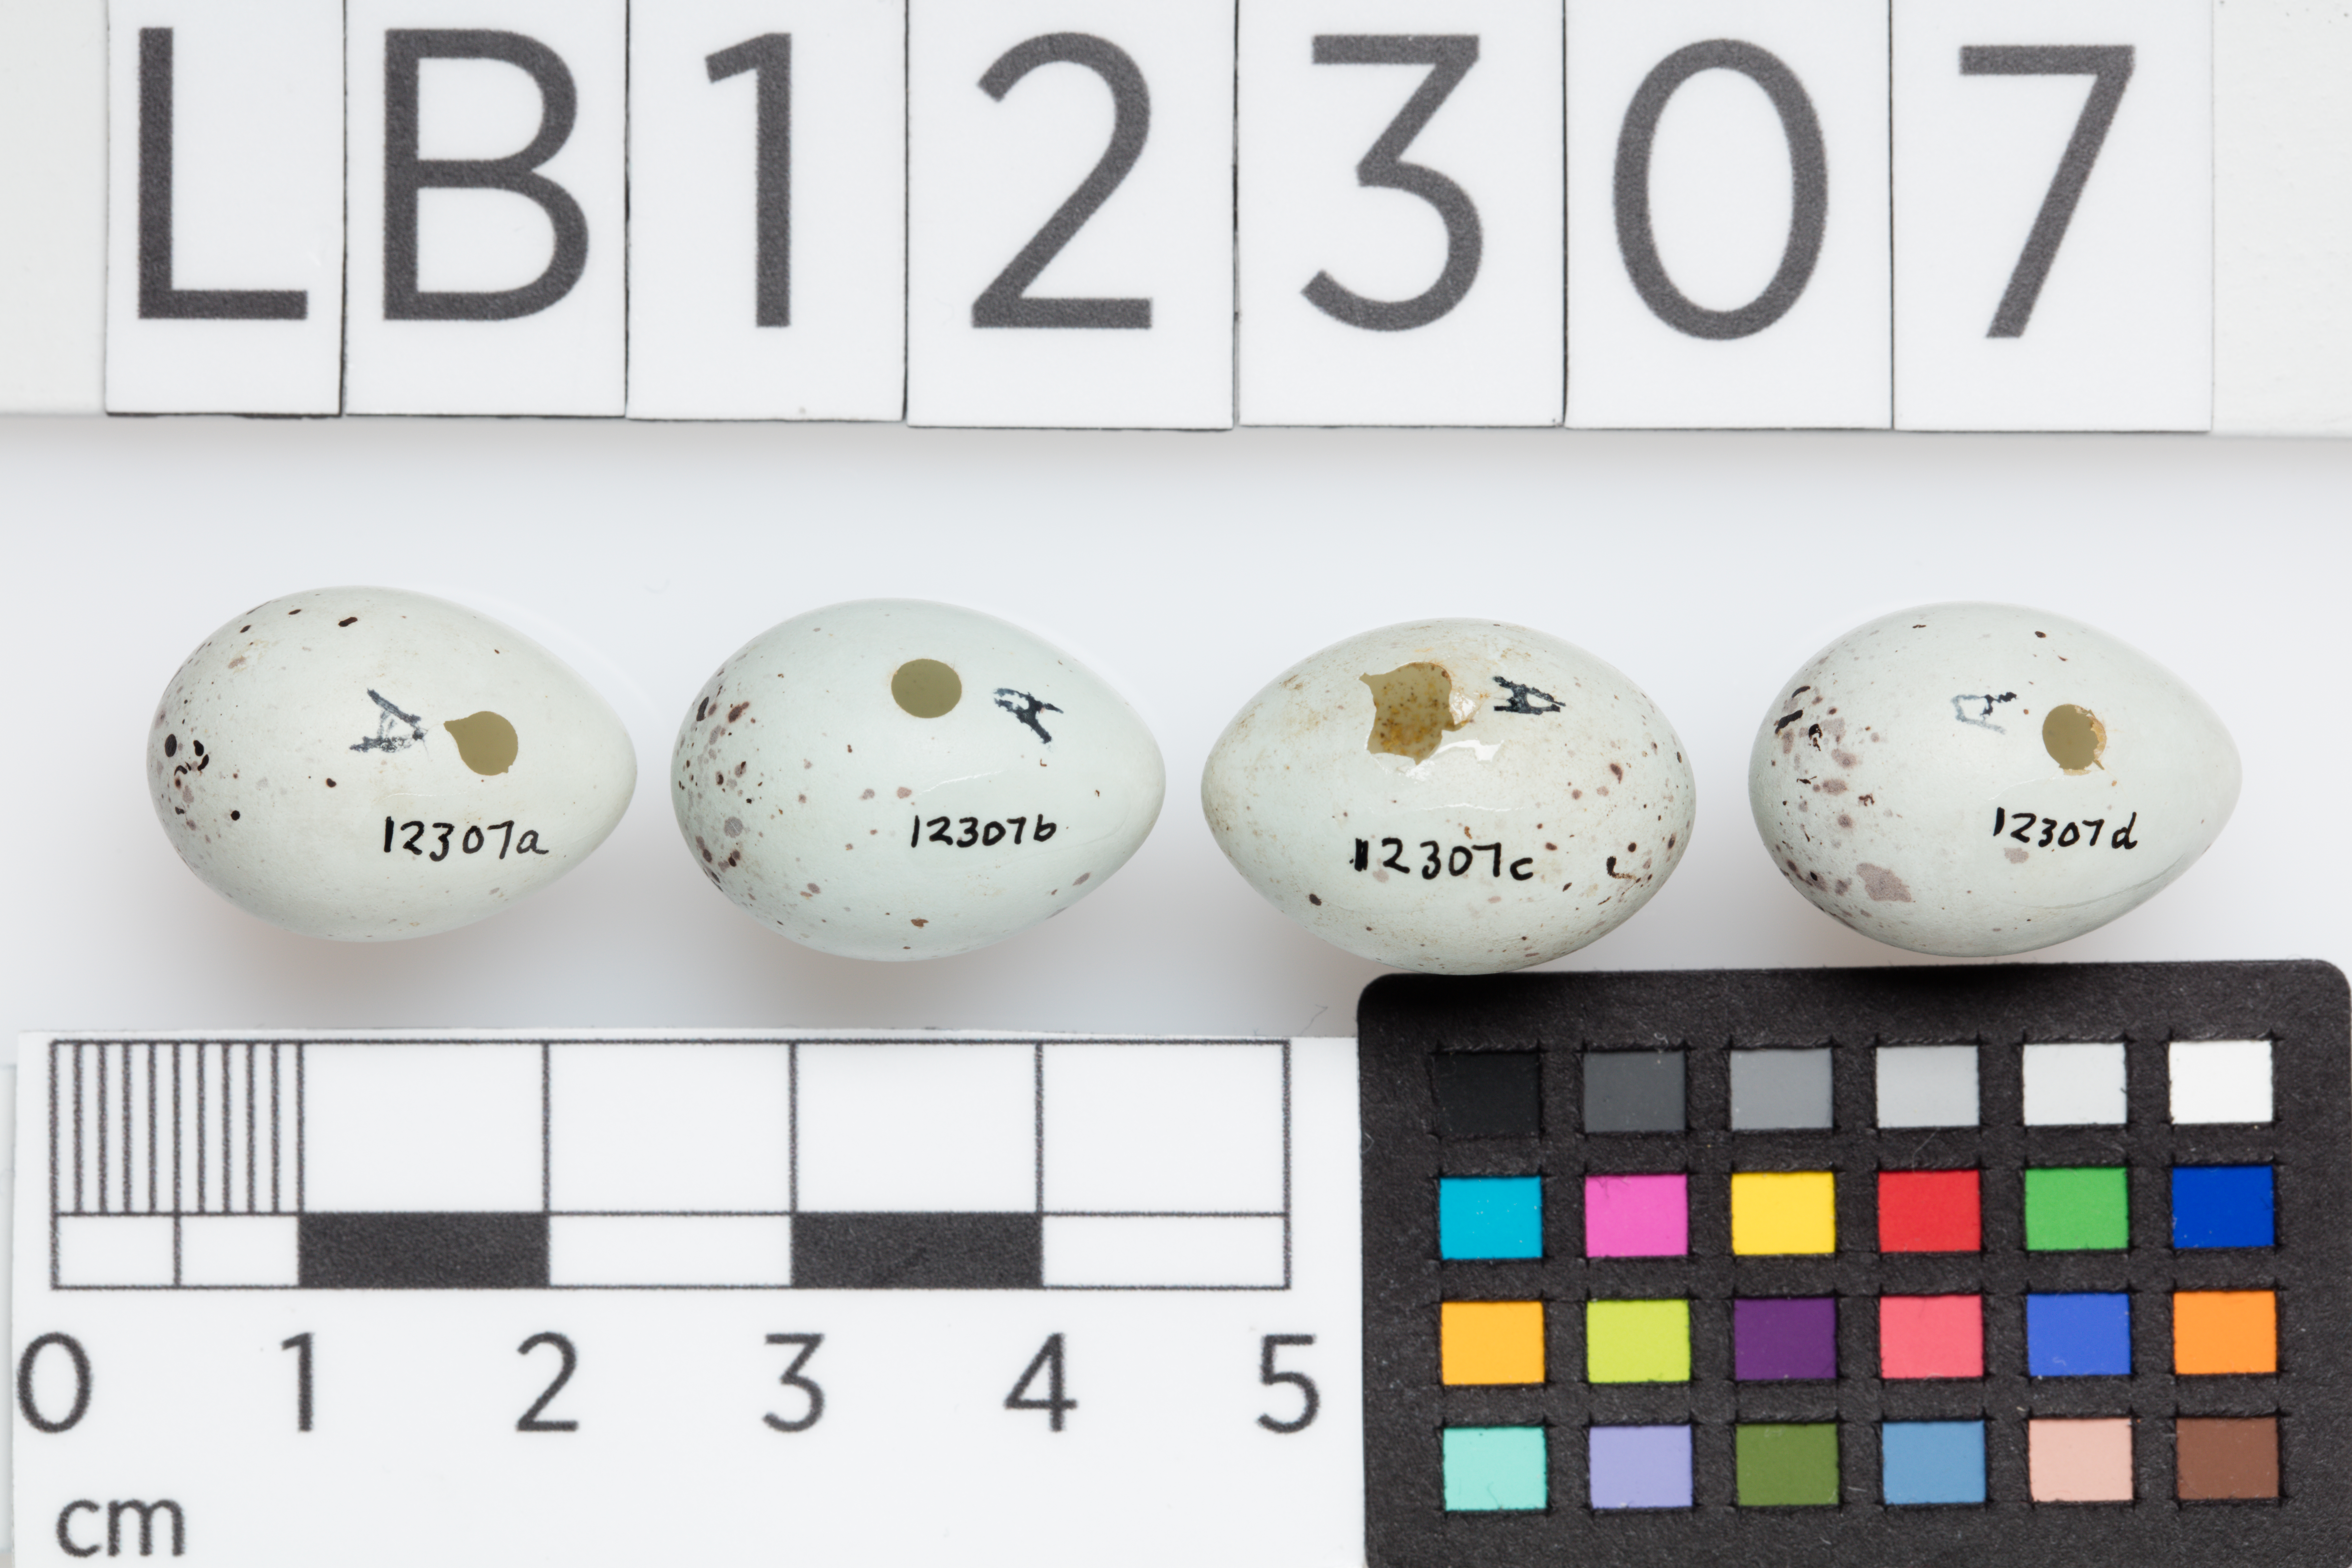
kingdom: Animalia
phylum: Chordata
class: Aves
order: Passeriformes
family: Fringillidae
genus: Pyrrhula
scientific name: Pyrrhula pyrrhula
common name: Eurasian bullfinch
